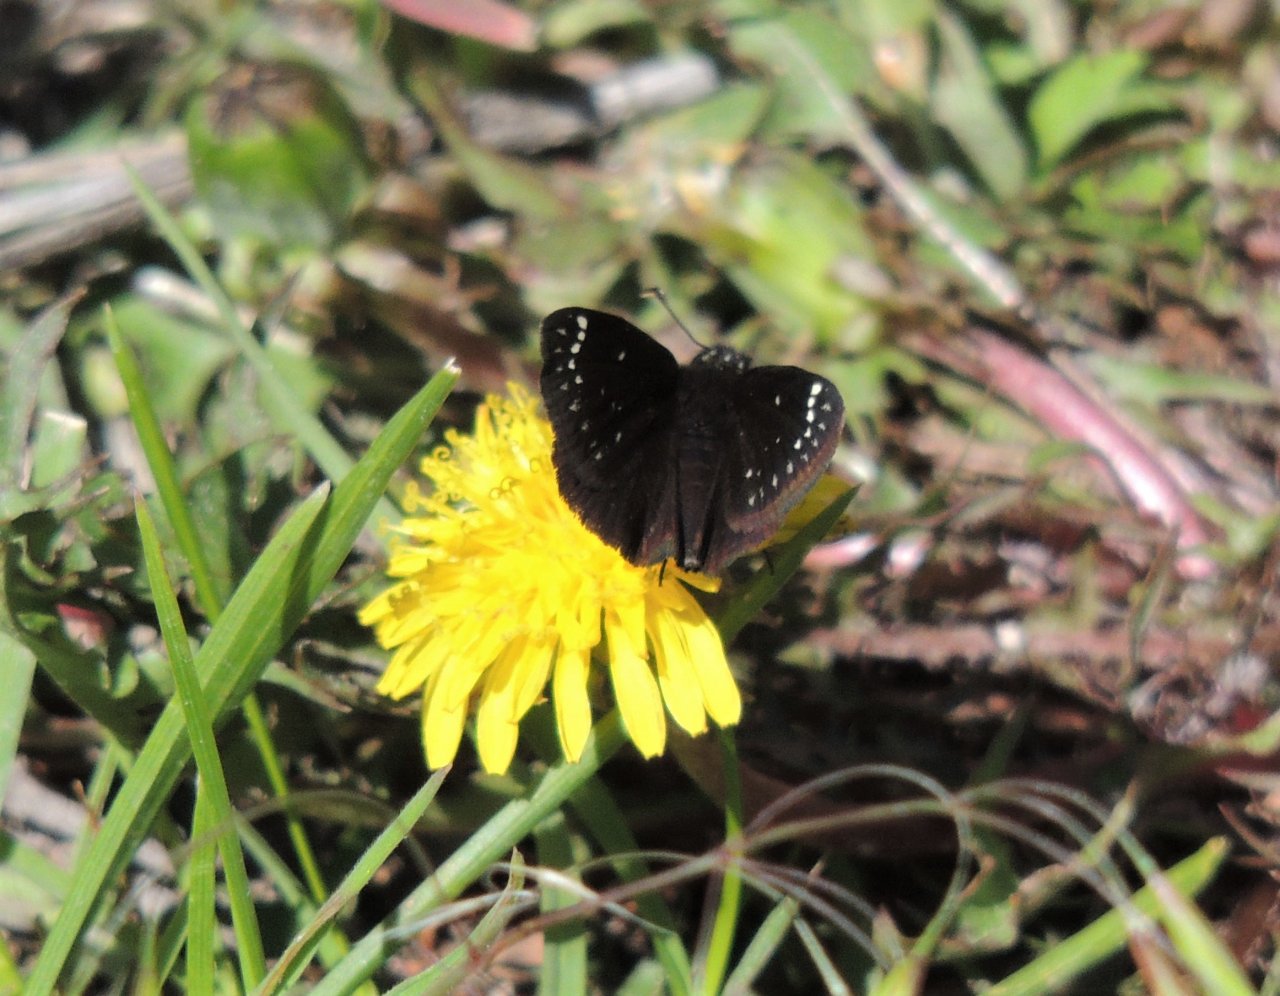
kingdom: Animalia
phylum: Arthropoda
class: Insecta
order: Lepidoptera
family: Hesperiidae
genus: Pholisora
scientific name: Pholisora catullus
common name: Common Sootywing
